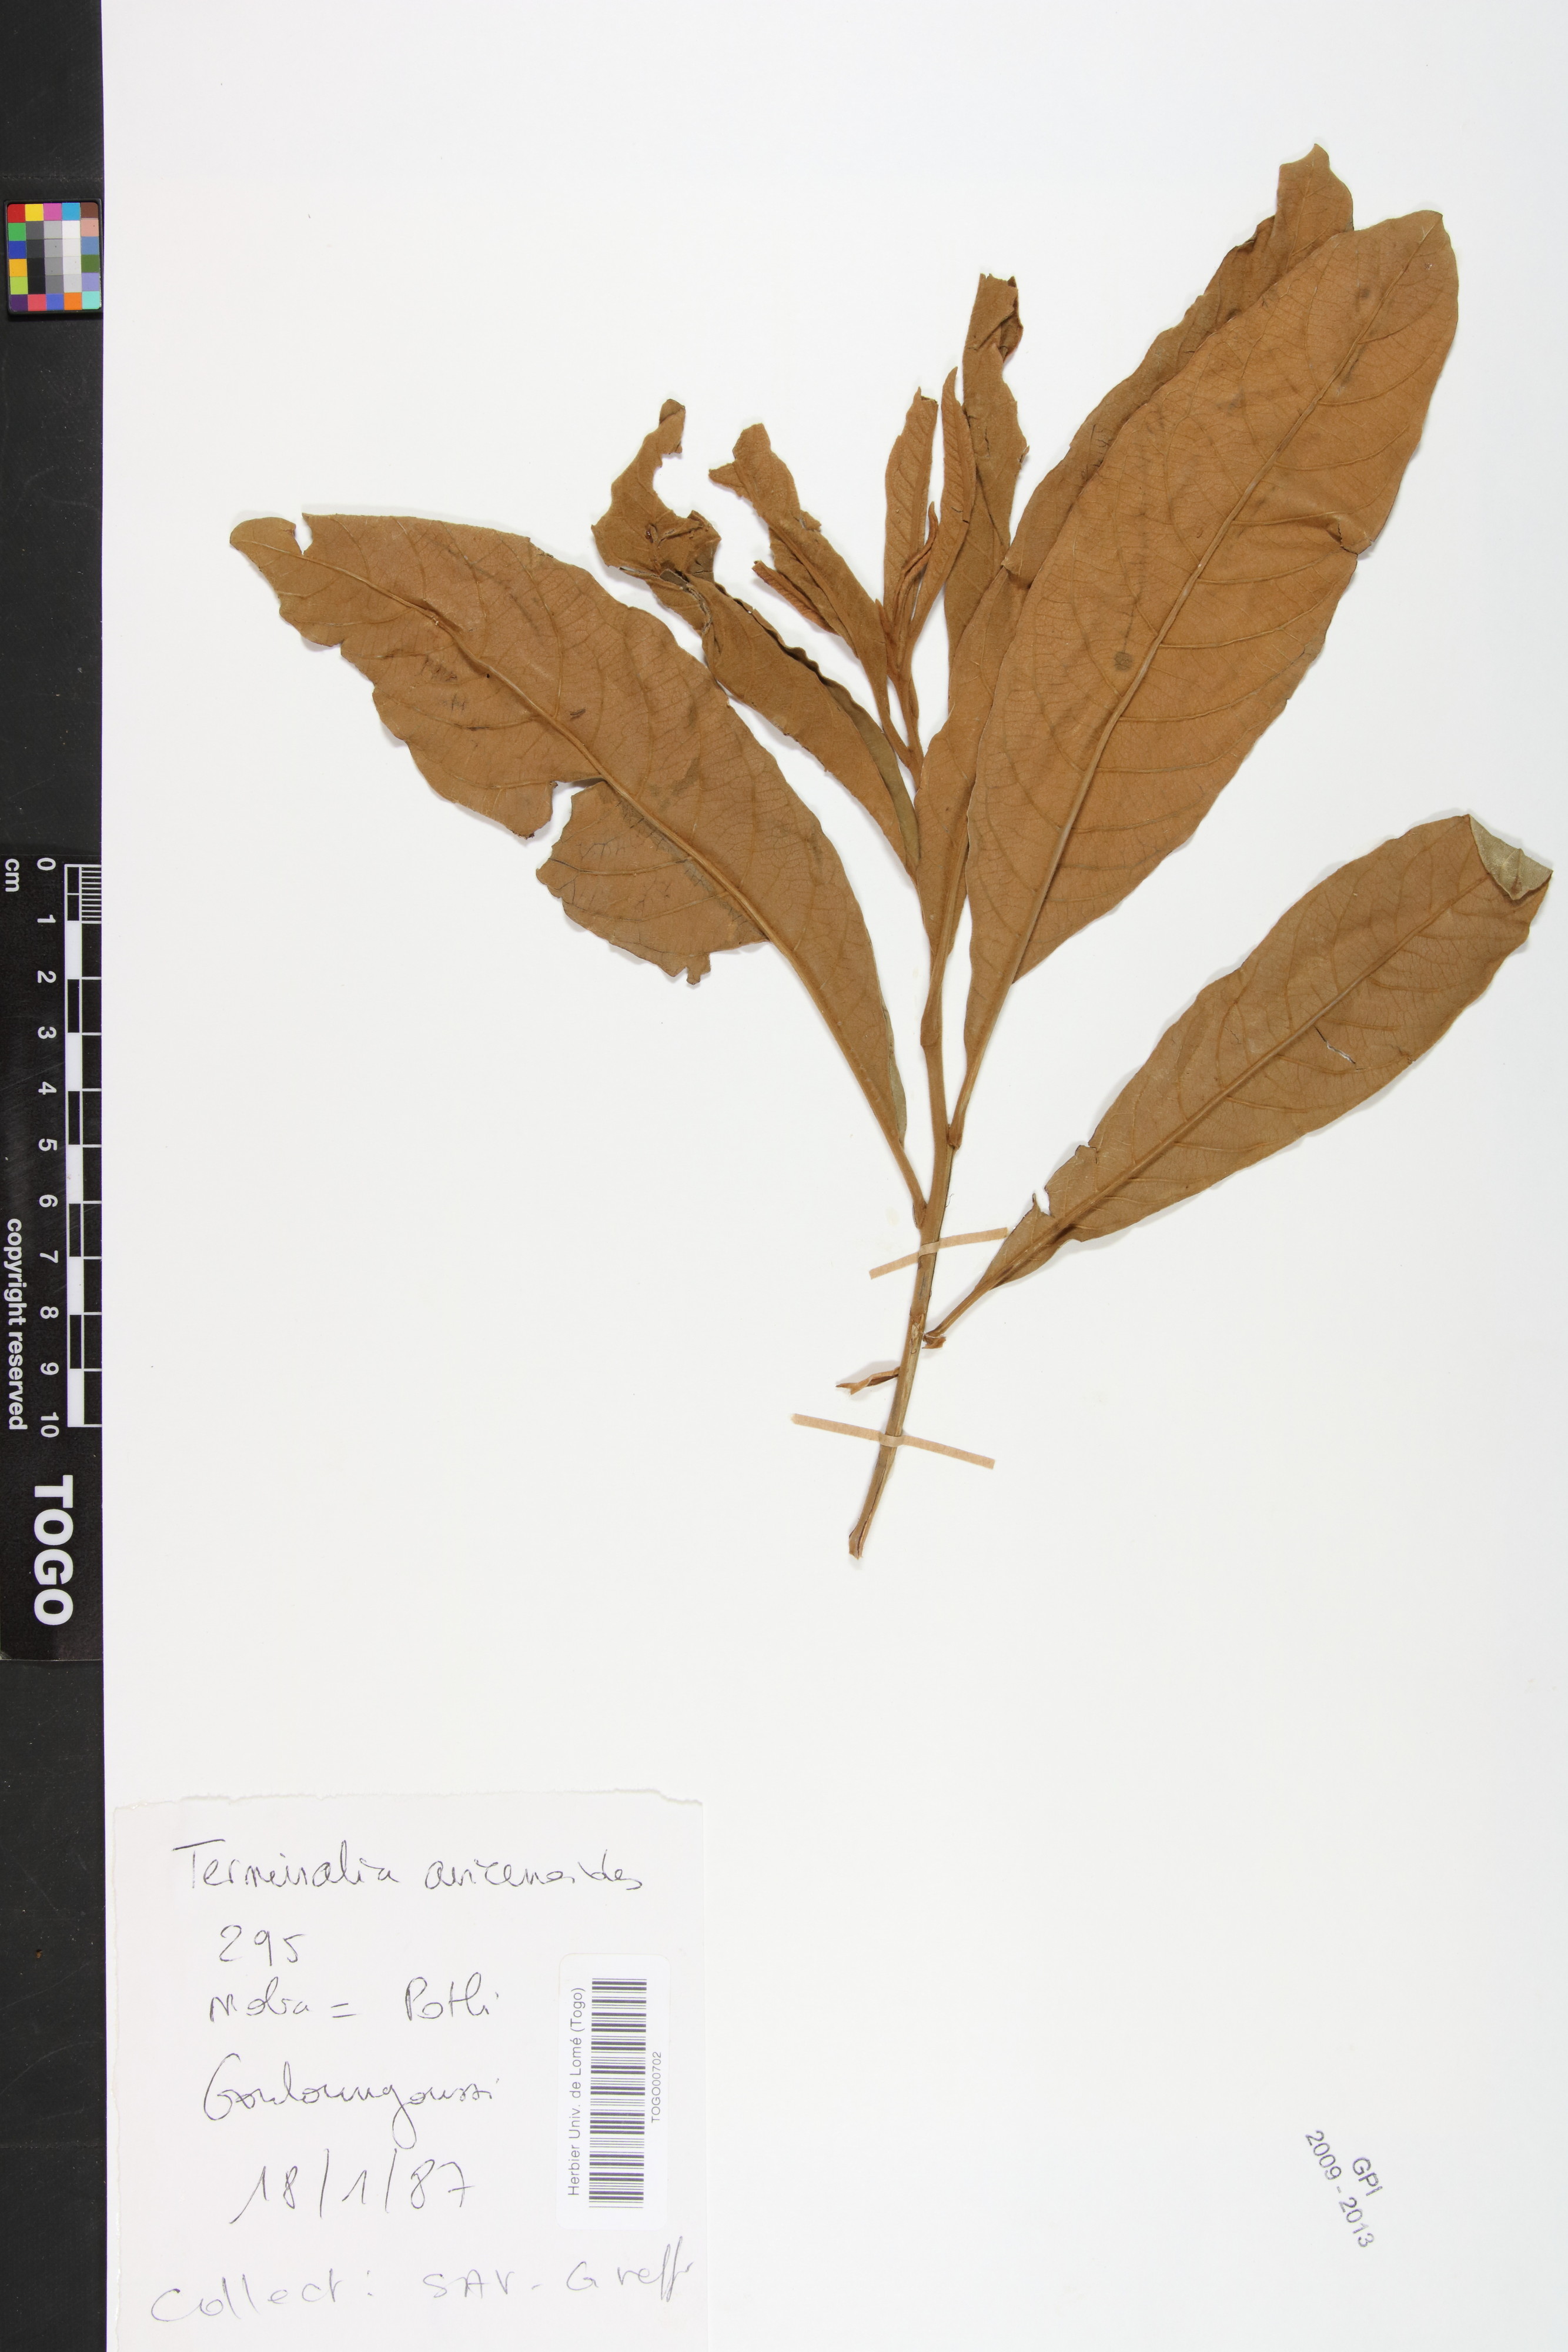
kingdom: Plantae
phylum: Tracheophyta
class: Magnoliopsida
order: Myrtales
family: Combretaceae
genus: Terminalia
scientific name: Terminalia avicennioides
